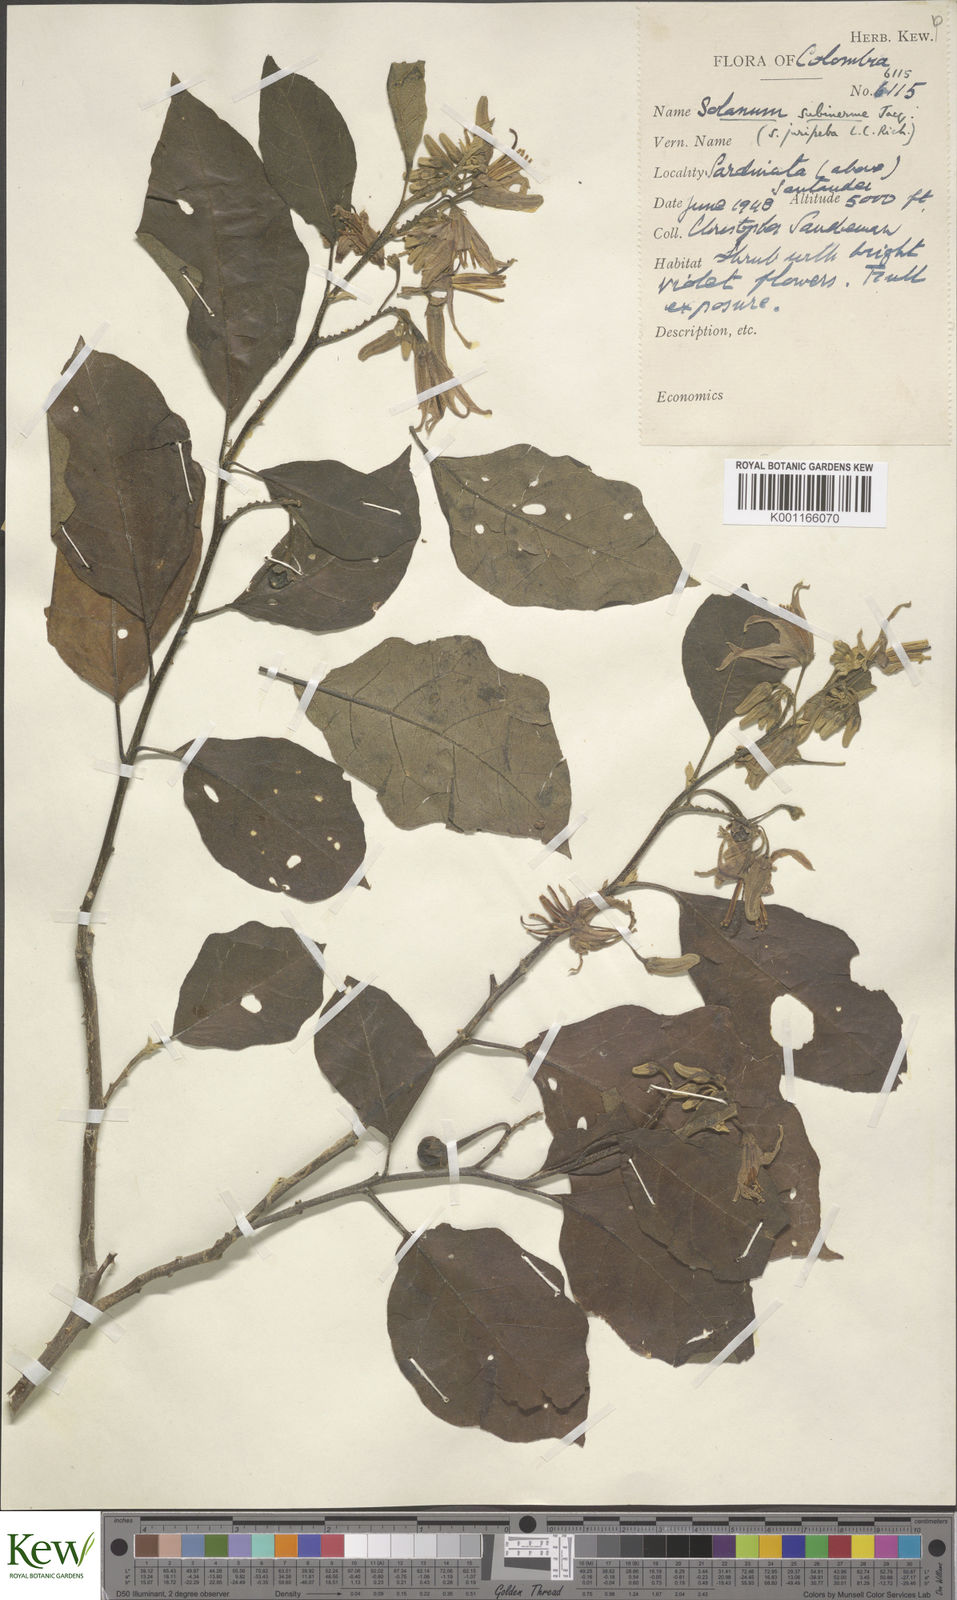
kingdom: Plantae
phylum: Tracheophyta
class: Magnoliopsida
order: Solanales
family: Solanaceae
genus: Solanum
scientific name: Solanum subinerme
